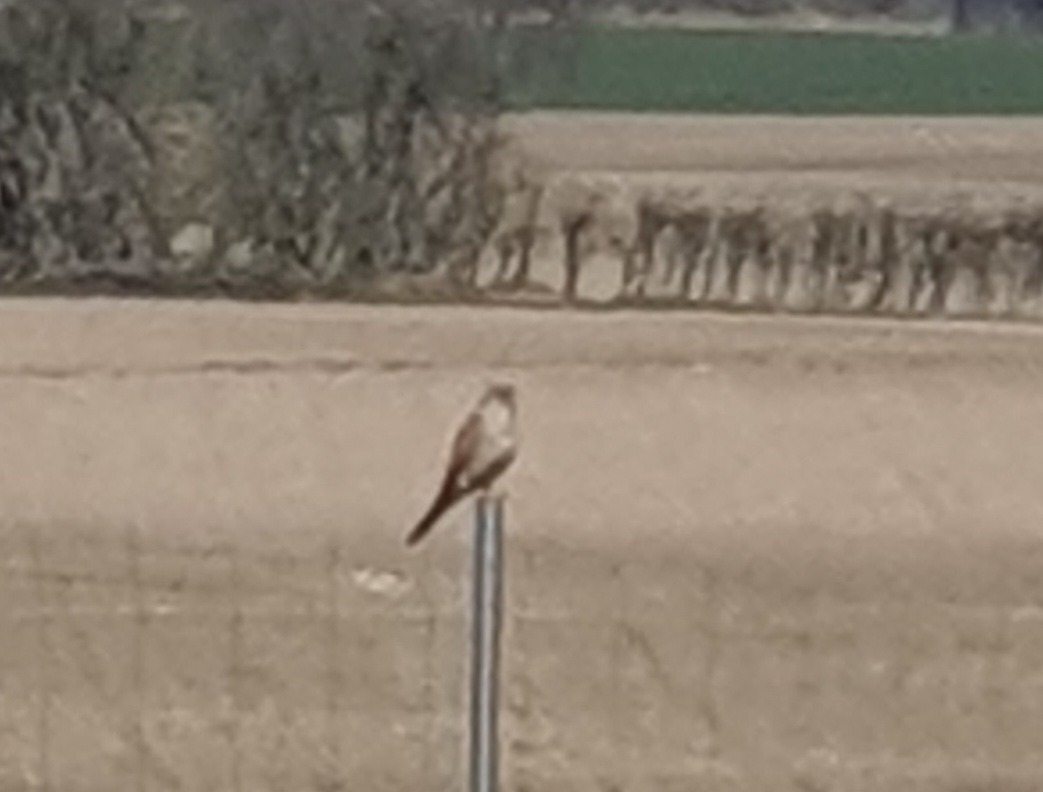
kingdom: Animalia
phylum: Chordata
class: Aves
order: Falconiformes
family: Falconidae
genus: Falco
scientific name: Falco tinnunculus
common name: Tårnfalk
